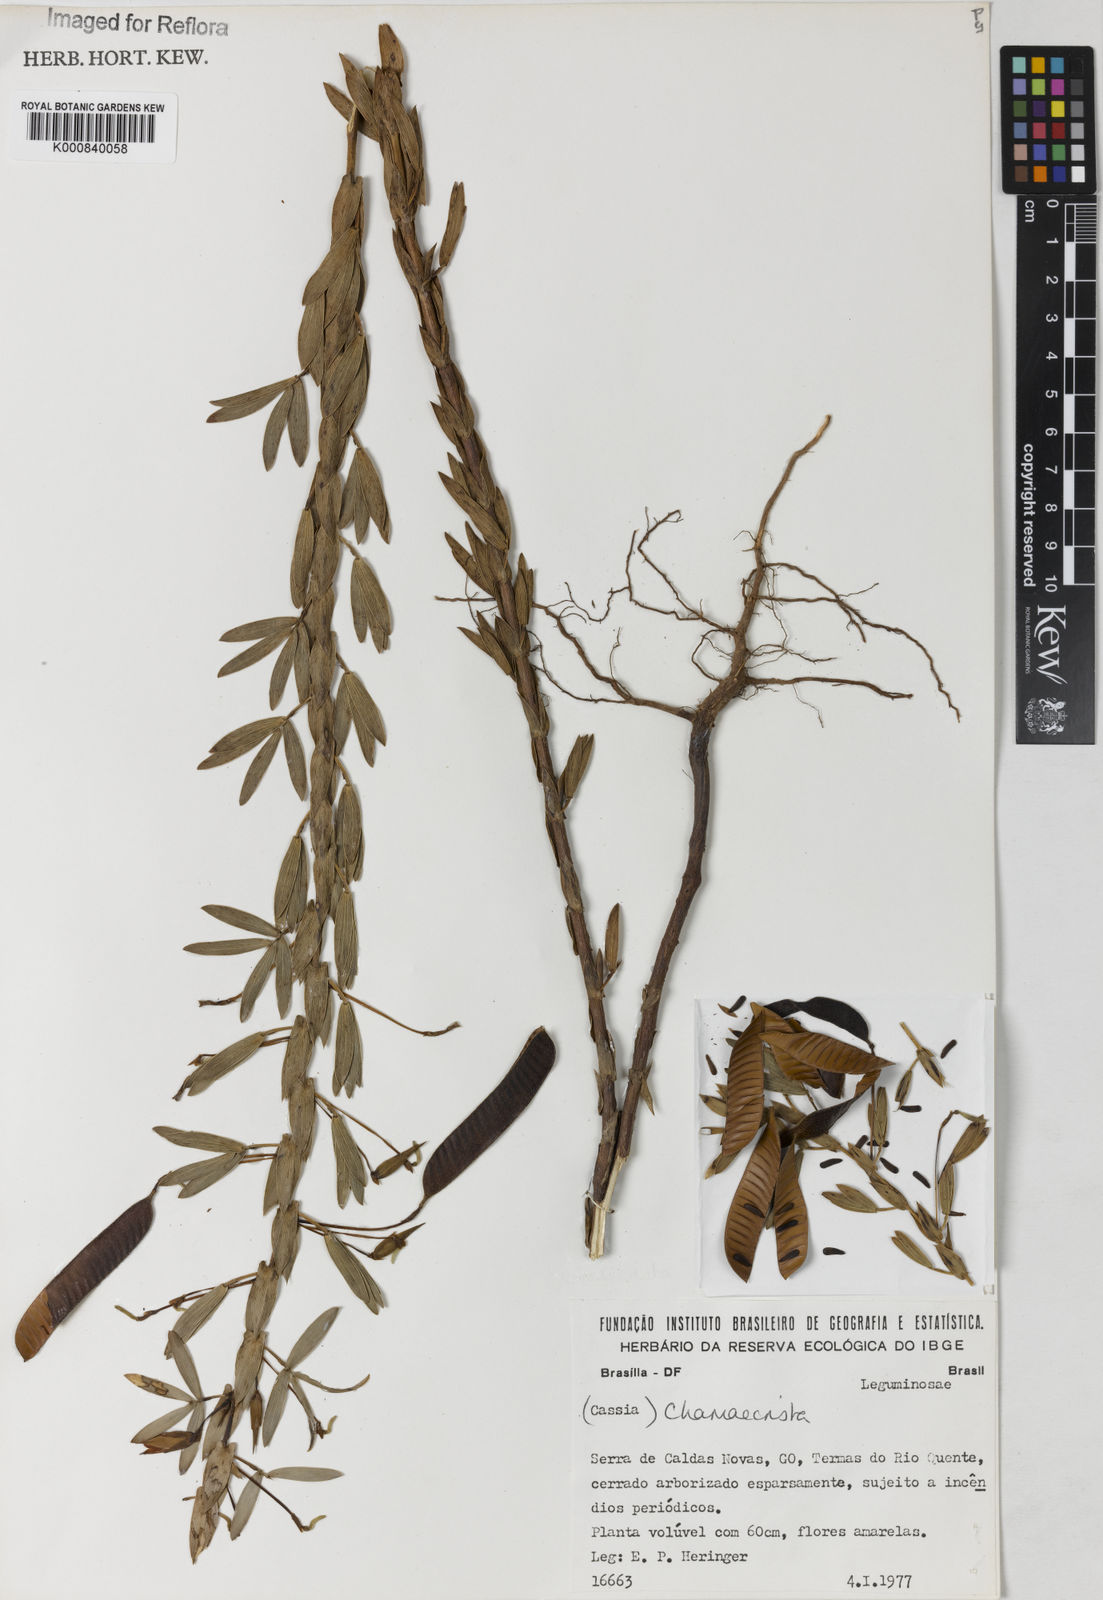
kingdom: Plantae
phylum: Tracheophyta
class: Magnoliopsida
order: Fabales
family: Fabaceae
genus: Chamaecrista
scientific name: Chamaecrista langsdorffii
